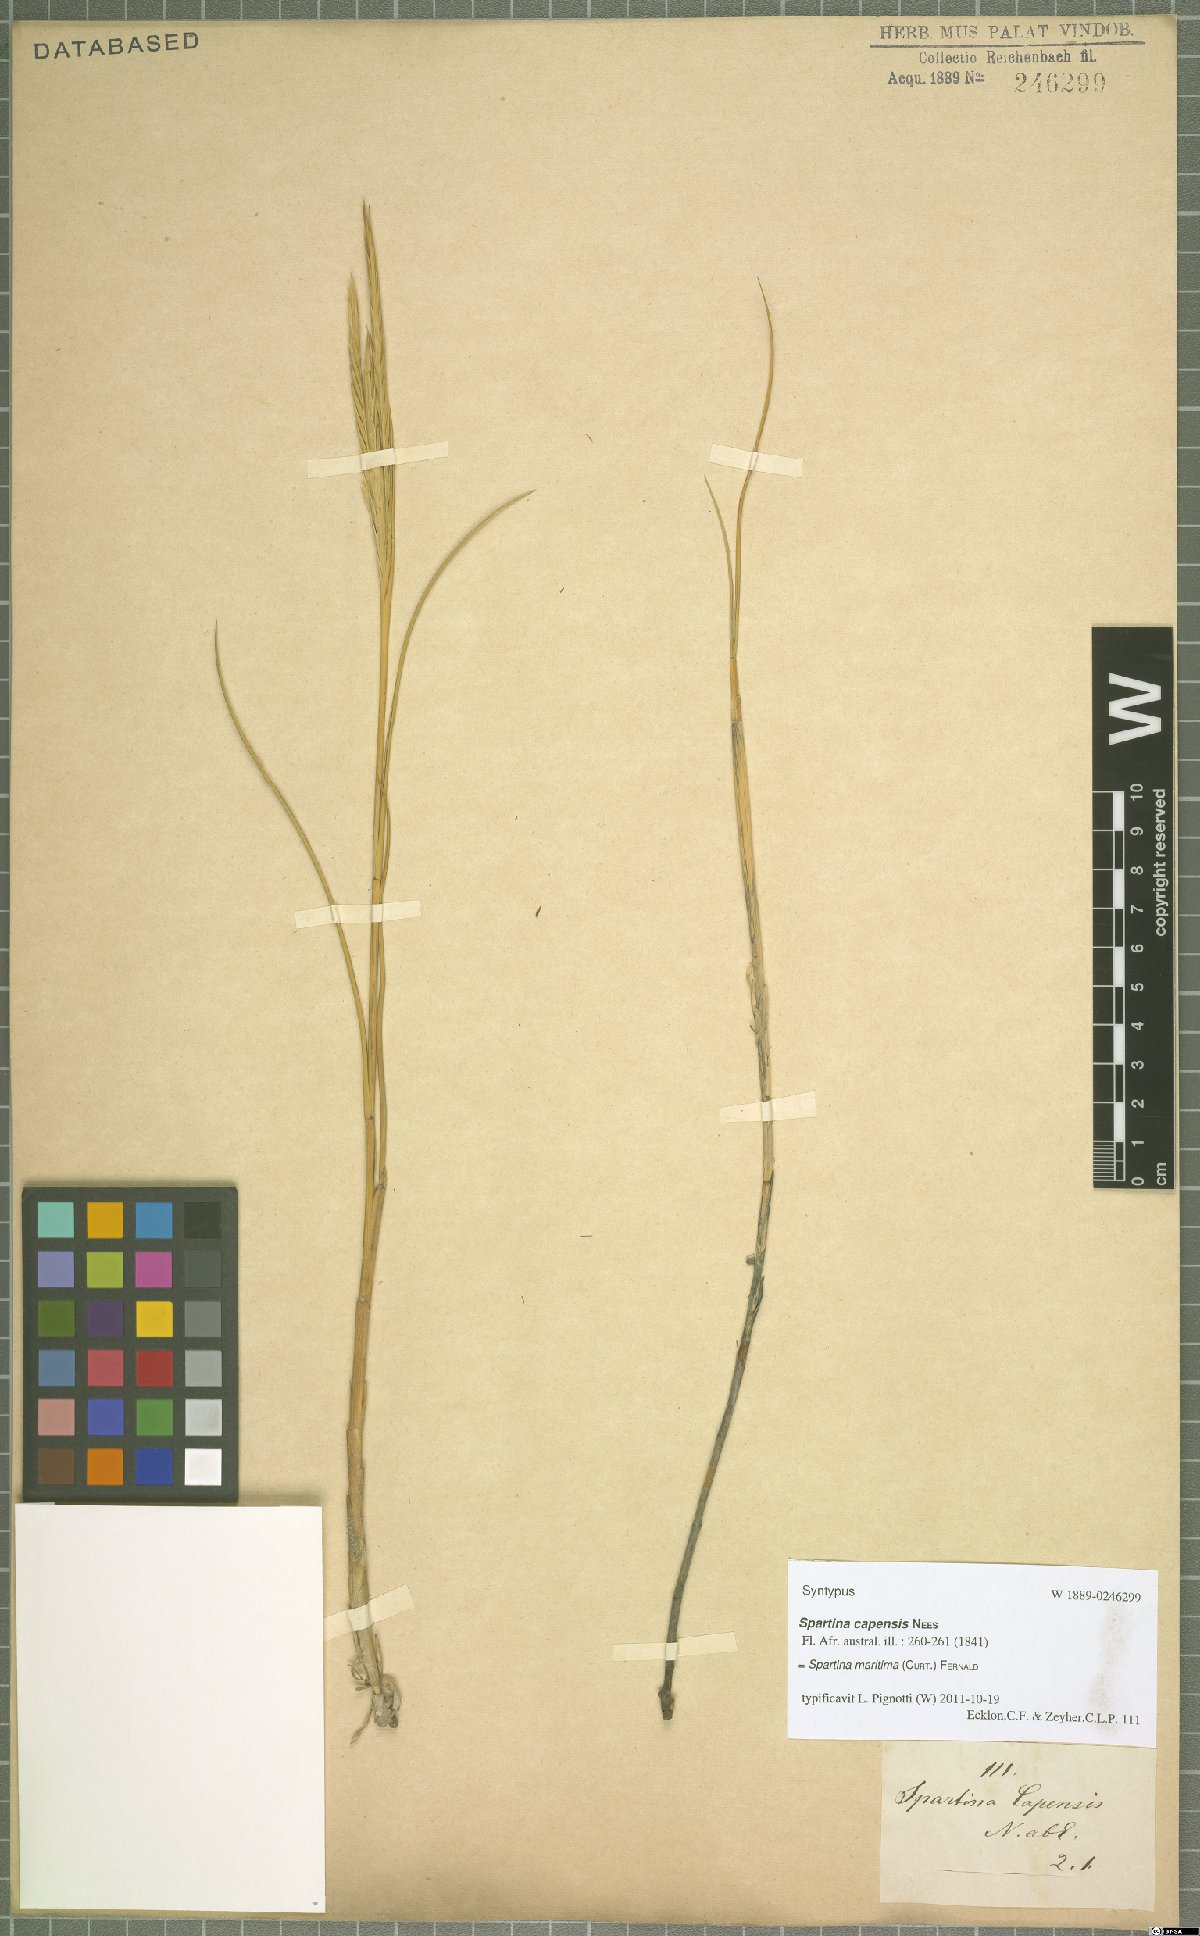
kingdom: Plantae
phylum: Tracheophyta
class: Liliopsida
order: Poales
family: Poaceae
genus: Sporobolus
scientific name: Sporobolus maritimus
